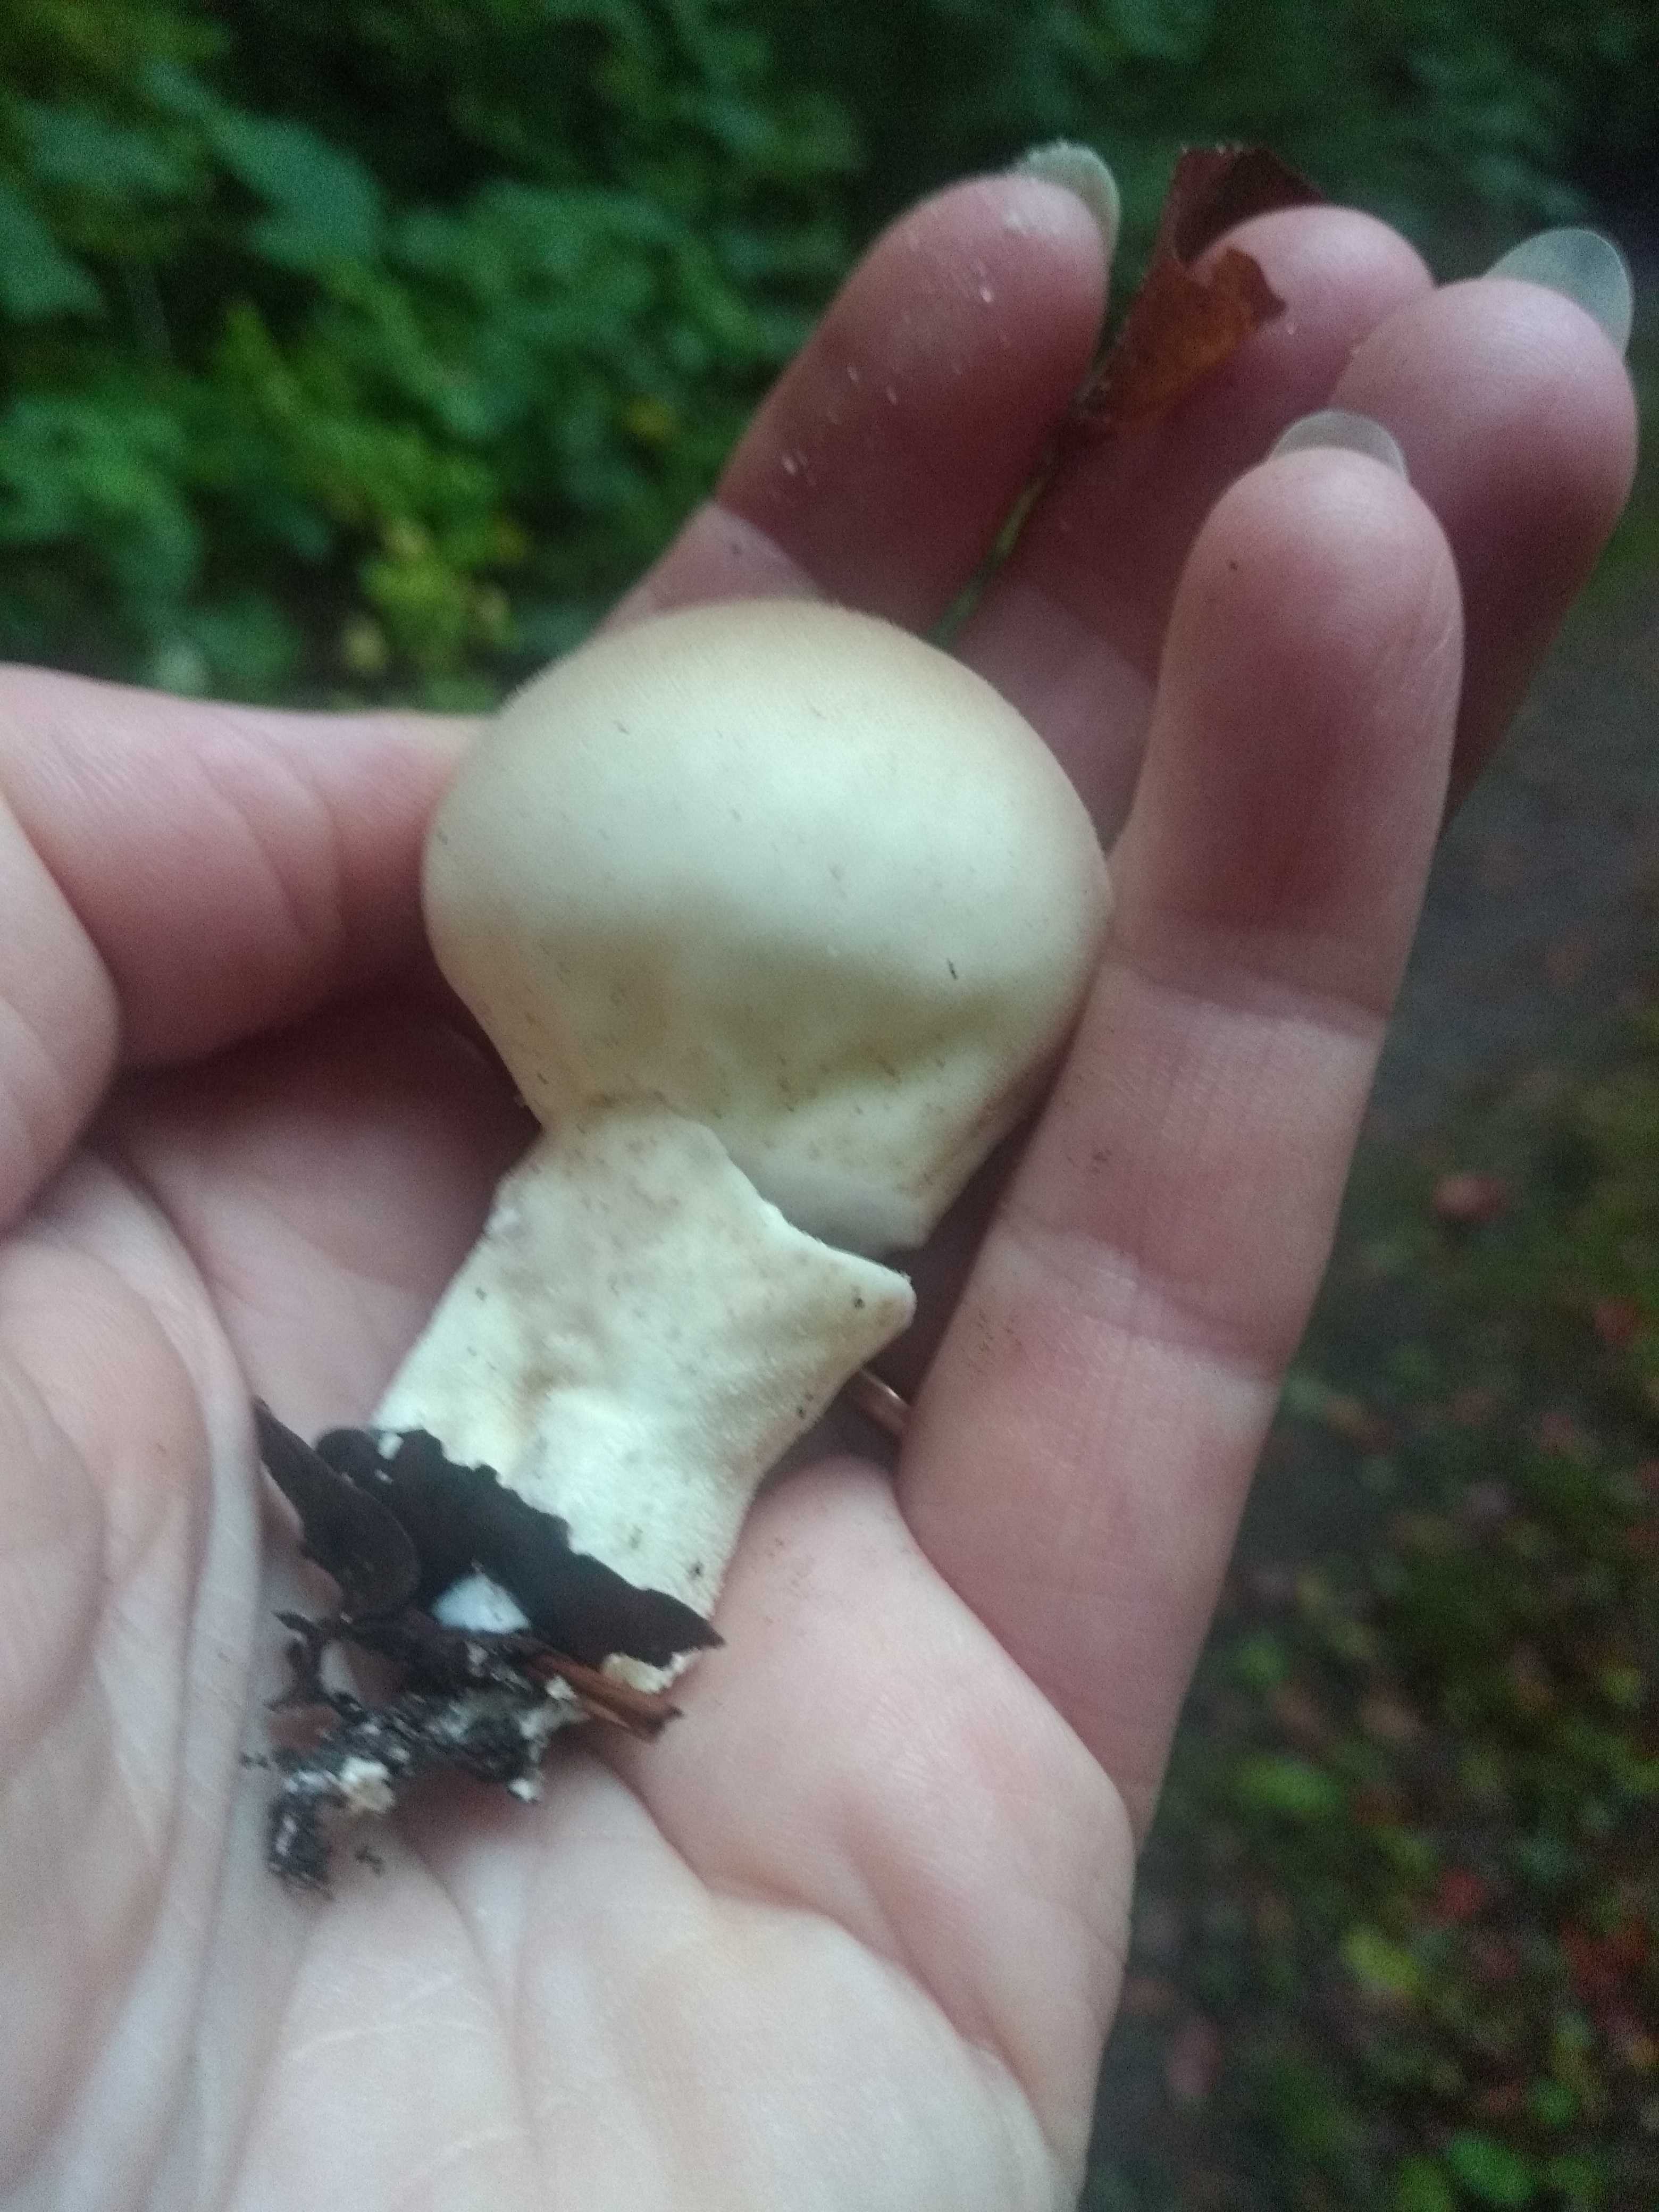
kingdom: Fungi
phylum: Basidiomycota
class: Agaricomycetes
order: Agaricales
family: Lycoperdaceae
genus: Apioperdon
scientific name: Apioperdon pyriforme
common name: pære-støvbold
